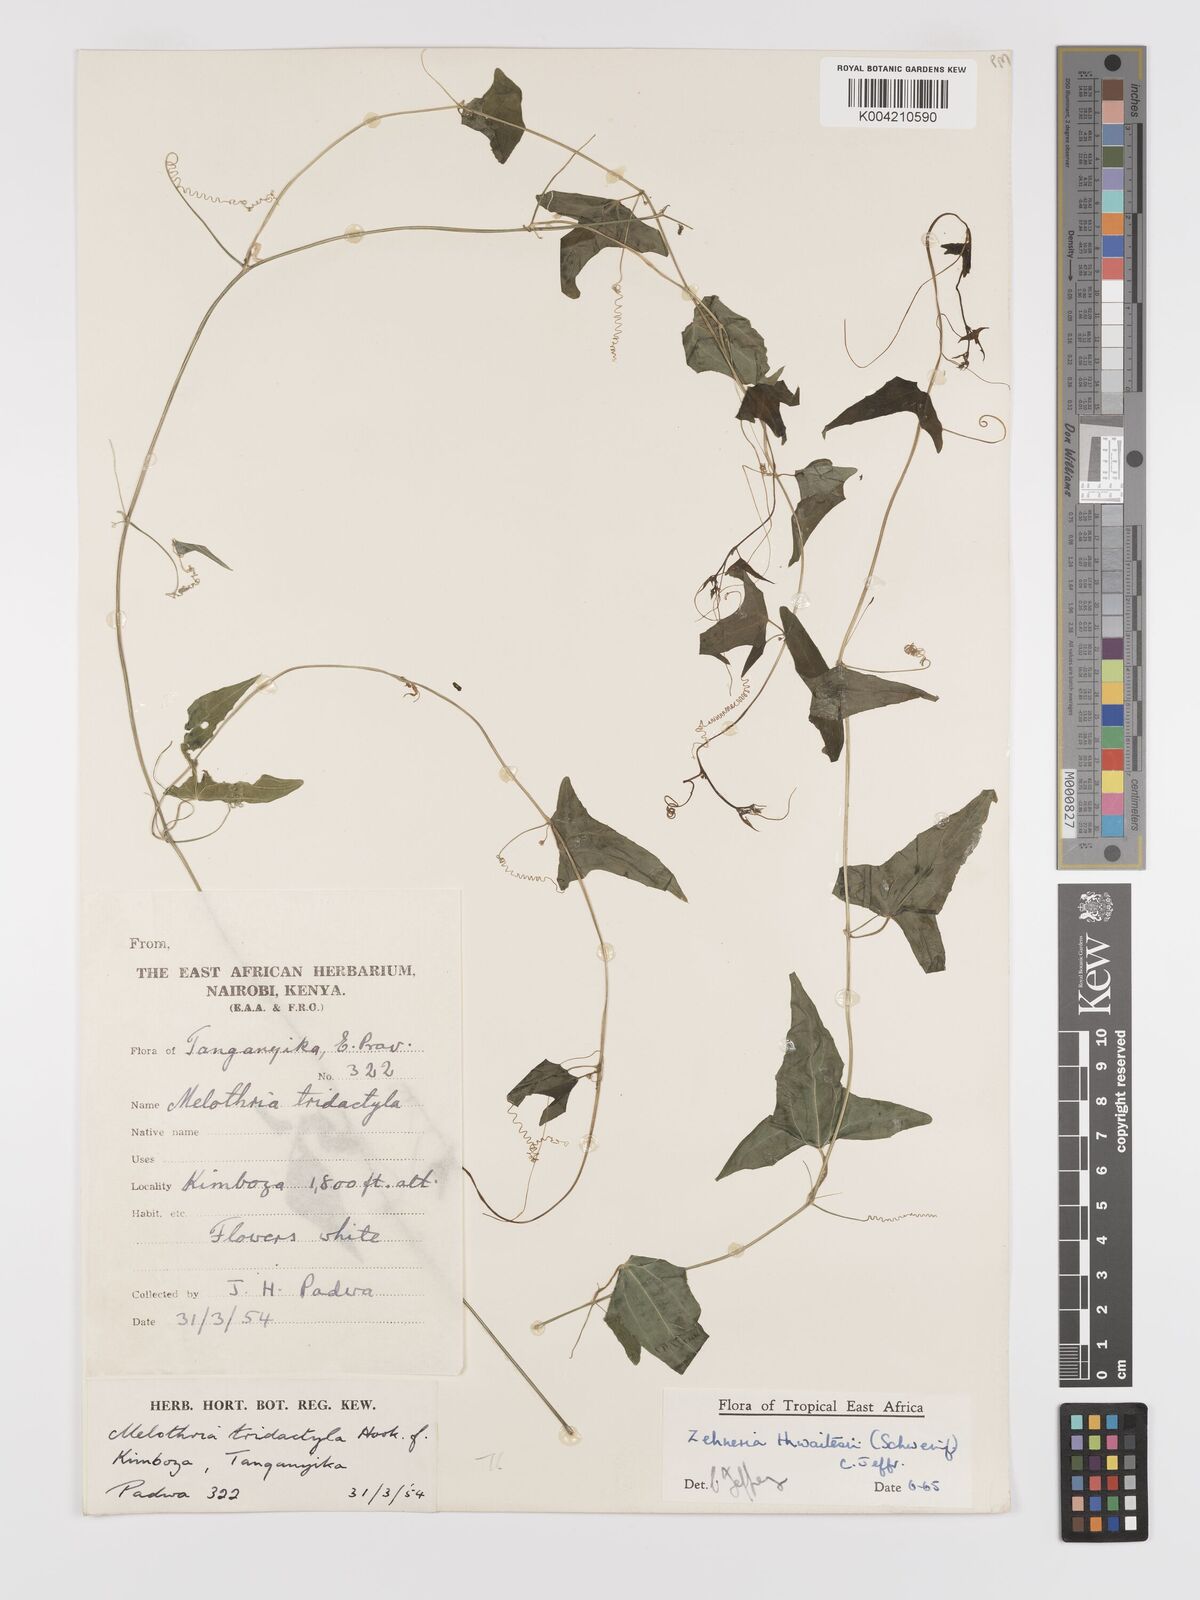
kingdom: Plantae
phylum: Tracheophyta
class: Magnoliopsida
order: Cucurbitales
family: Cucurbitaceae
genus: Zehneria
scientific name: Zehneria thwaitesii
